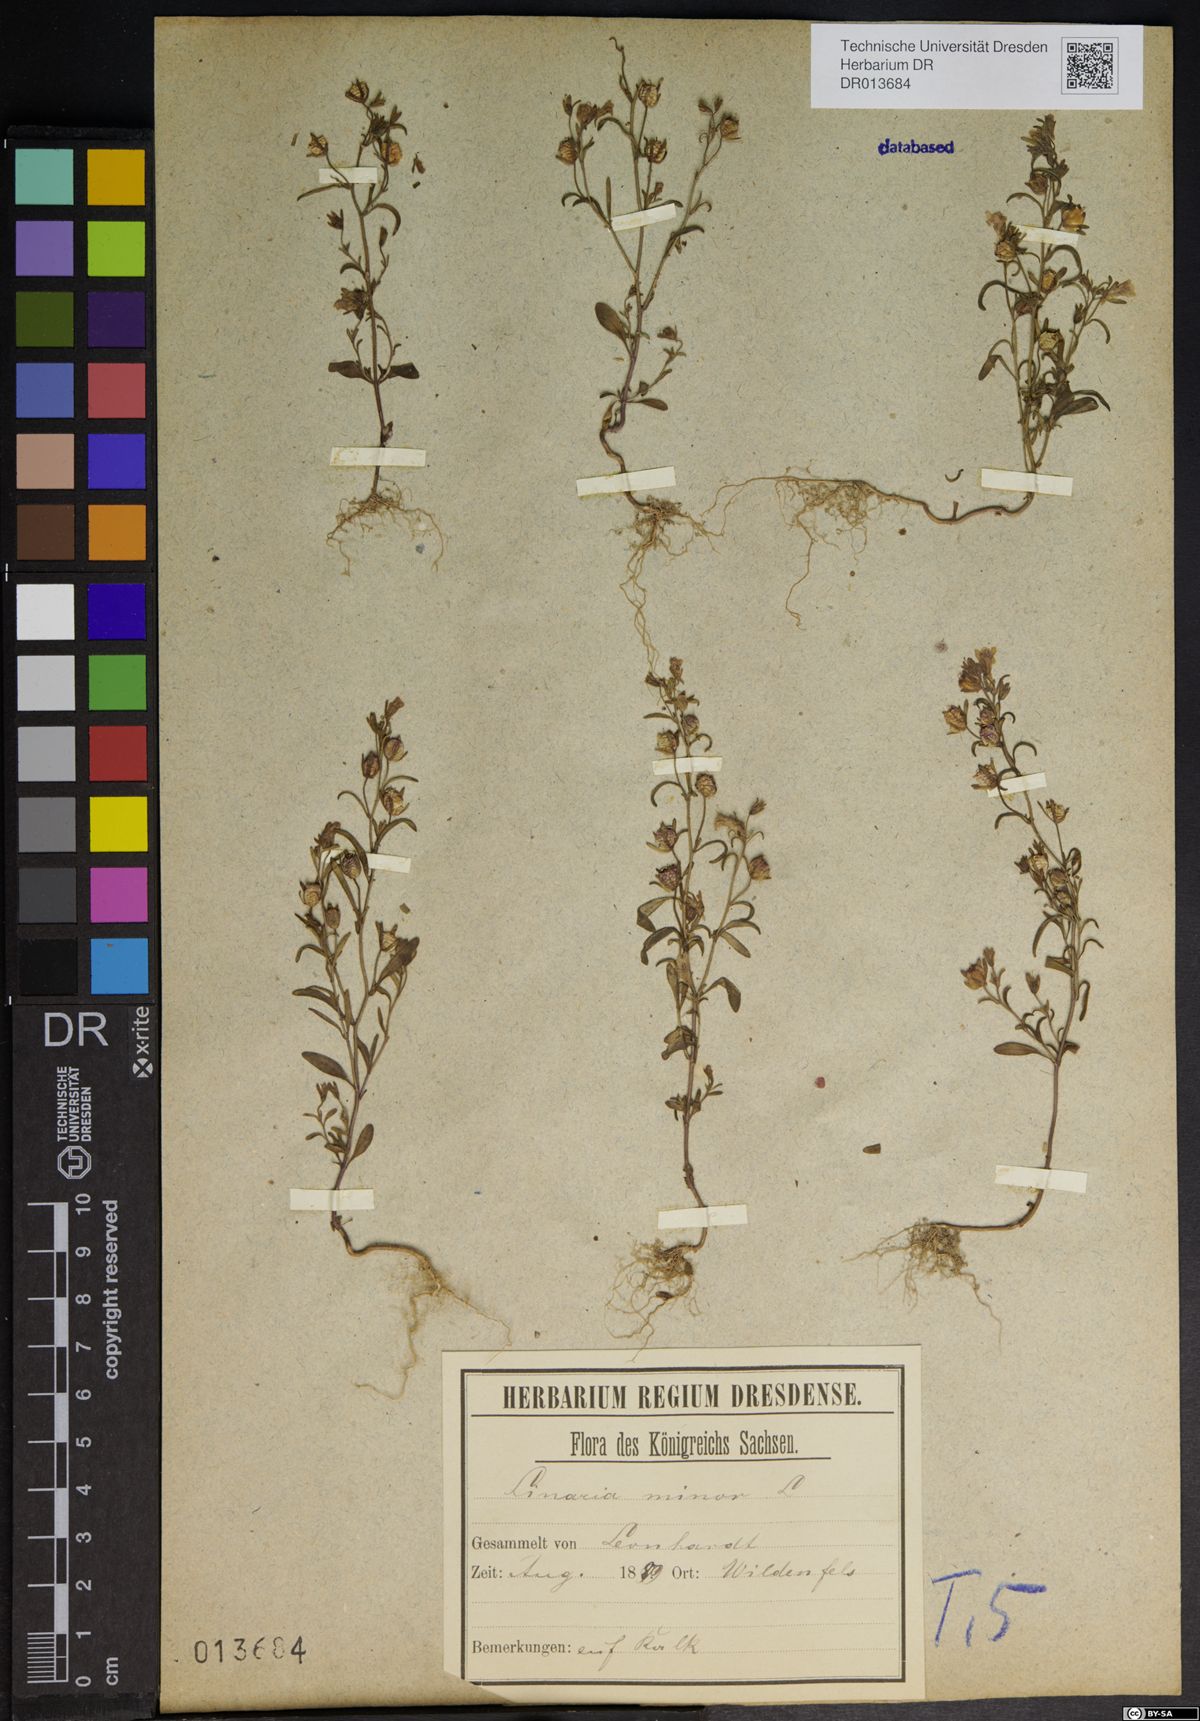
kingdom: Plantae
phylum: Tracheophyta
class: Magnoliopsida
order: Lamiales
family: Plantaginaceae
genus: Chaenorhinum
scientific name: Chaenorhinum minus
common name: Dwarf snapdragon
